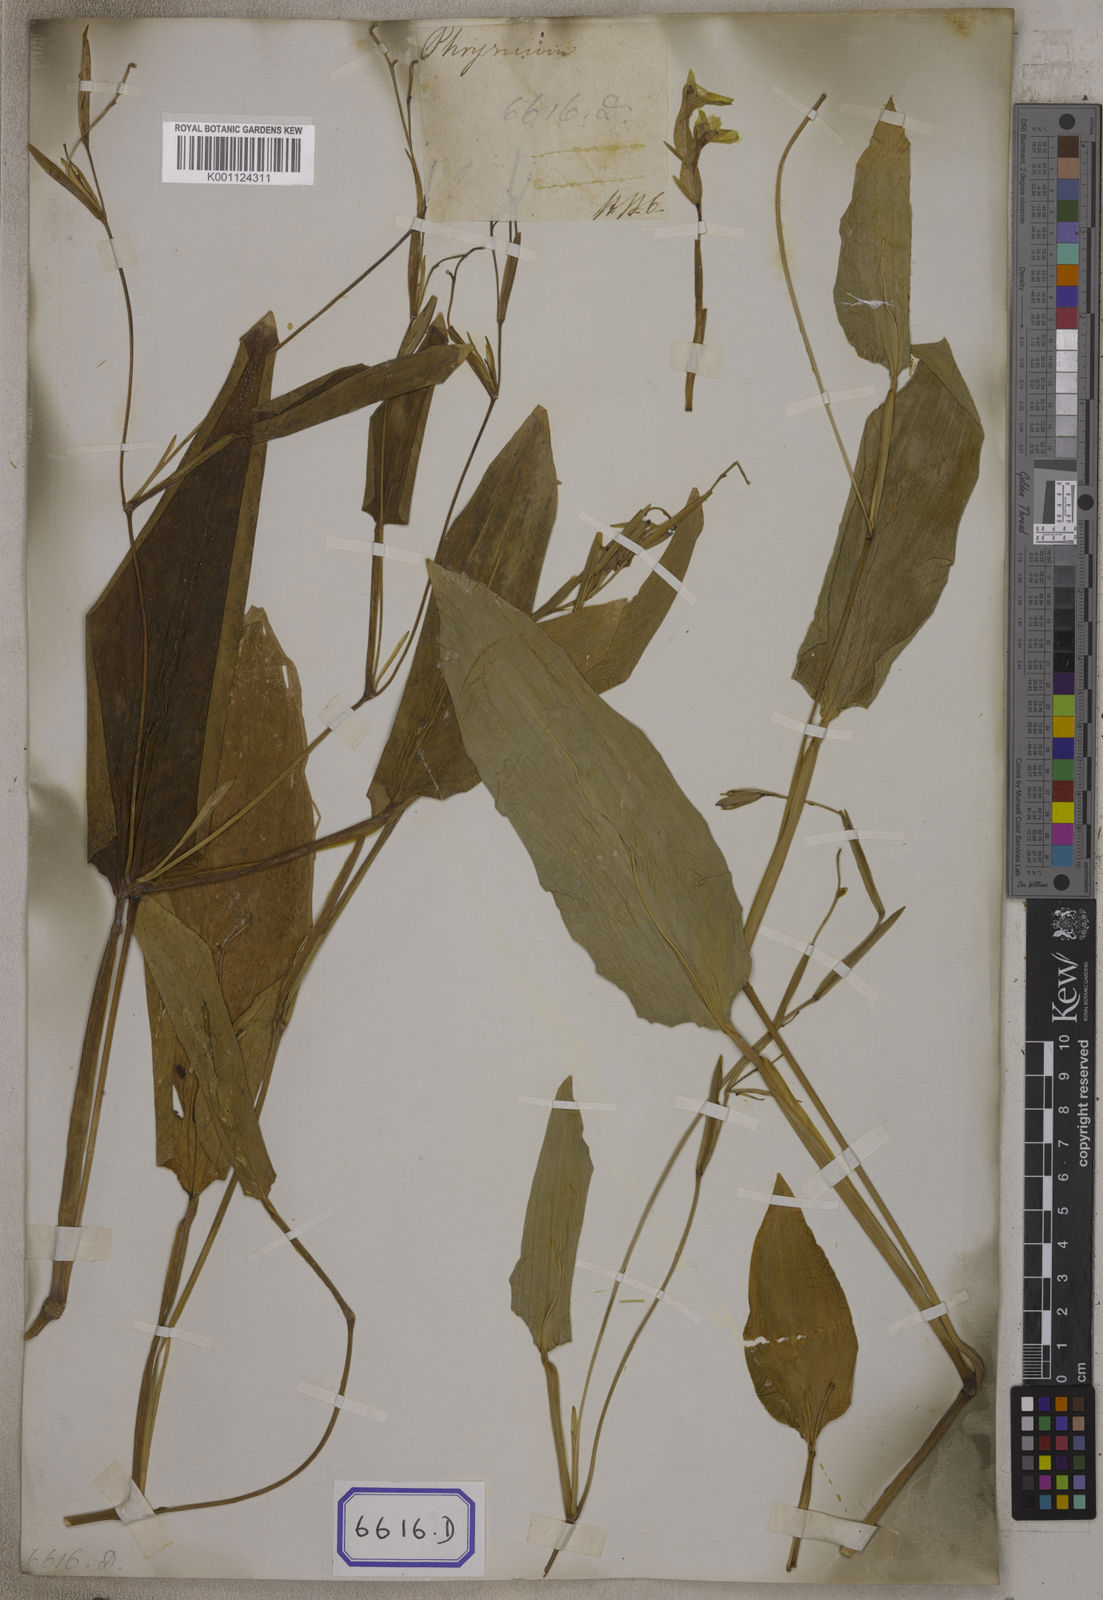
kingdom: Plantae
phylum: Tracheophyta
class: Liliopsida
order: Zingiberales
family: Marantaceae
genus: Maranta
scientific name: Maranta
